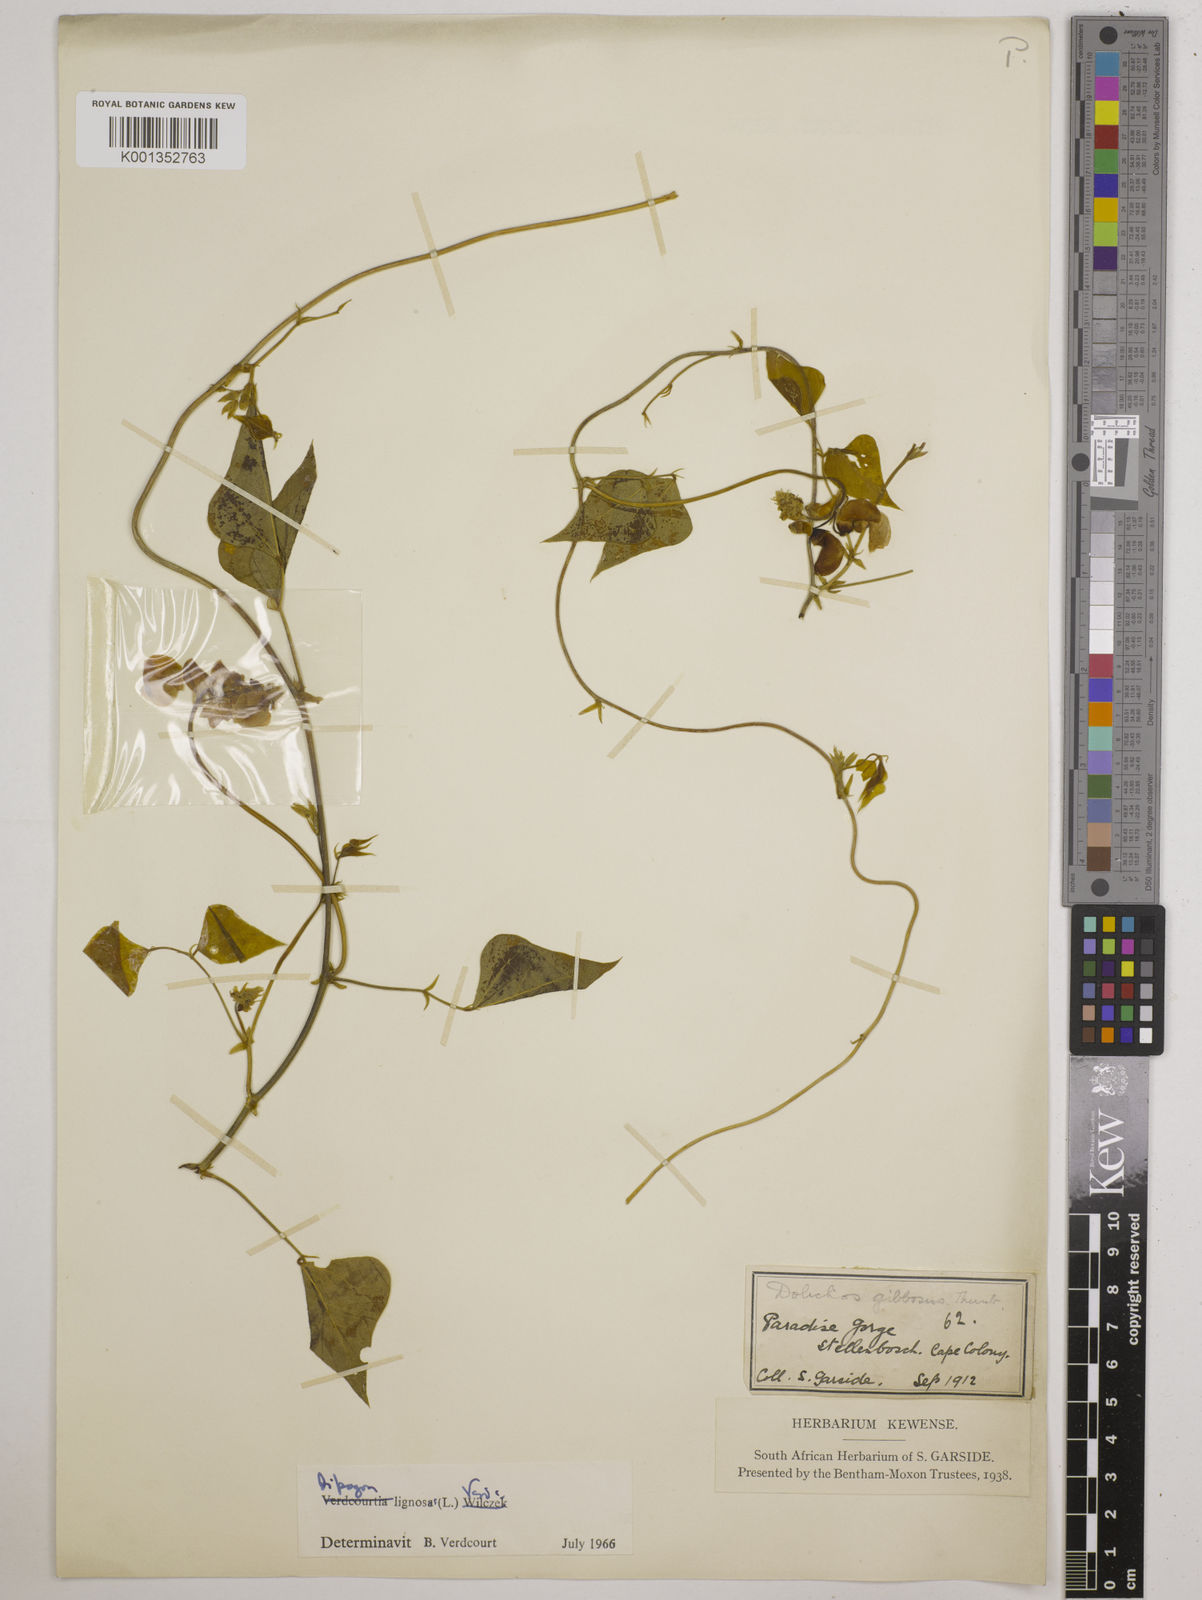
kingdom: Plantae
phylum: Tracheophyta
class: Magnoliopsida
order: Fabales
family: Fabaceae
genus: Dipogon
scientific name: Dipogon lignosus
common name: Okie bean
